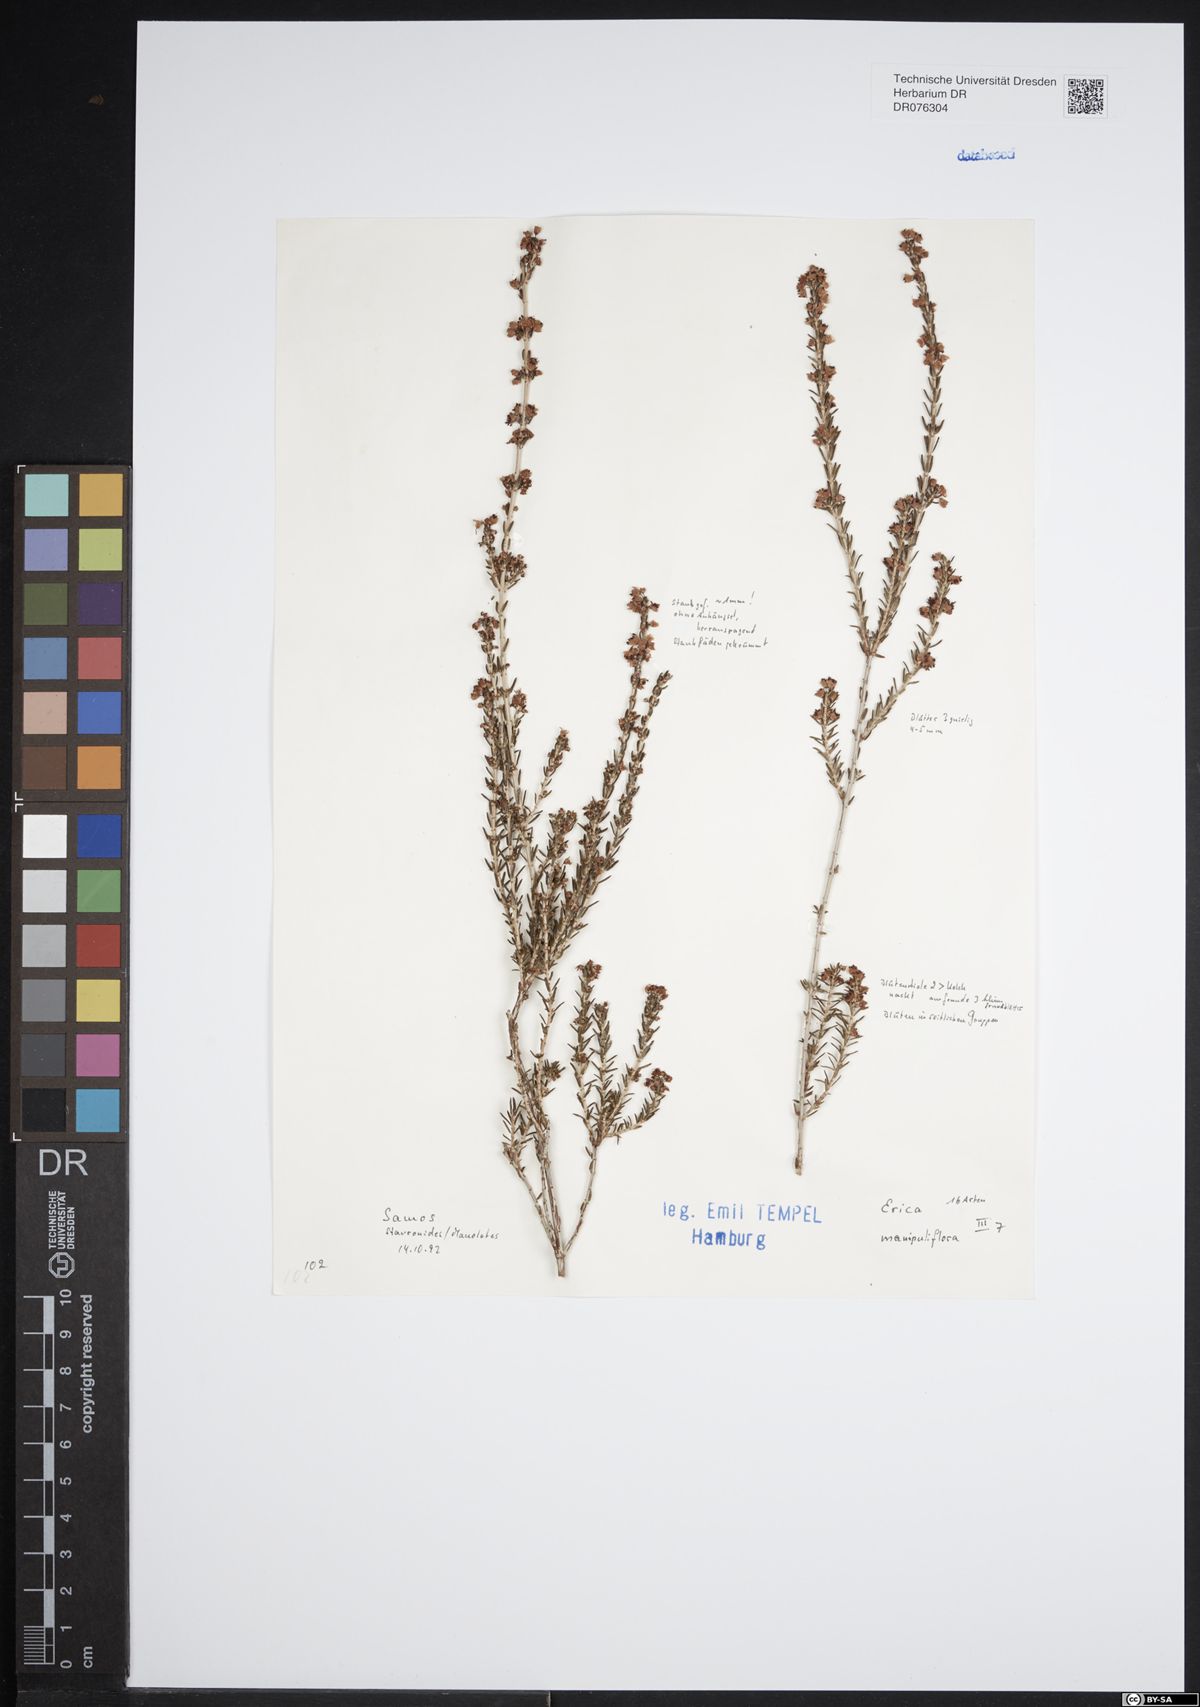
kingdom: Plantae
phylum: Tracheophyta
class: Magnoliopsida
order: Ericales
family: Ericaceae
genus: Erica
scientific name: Erica manipuliflora
